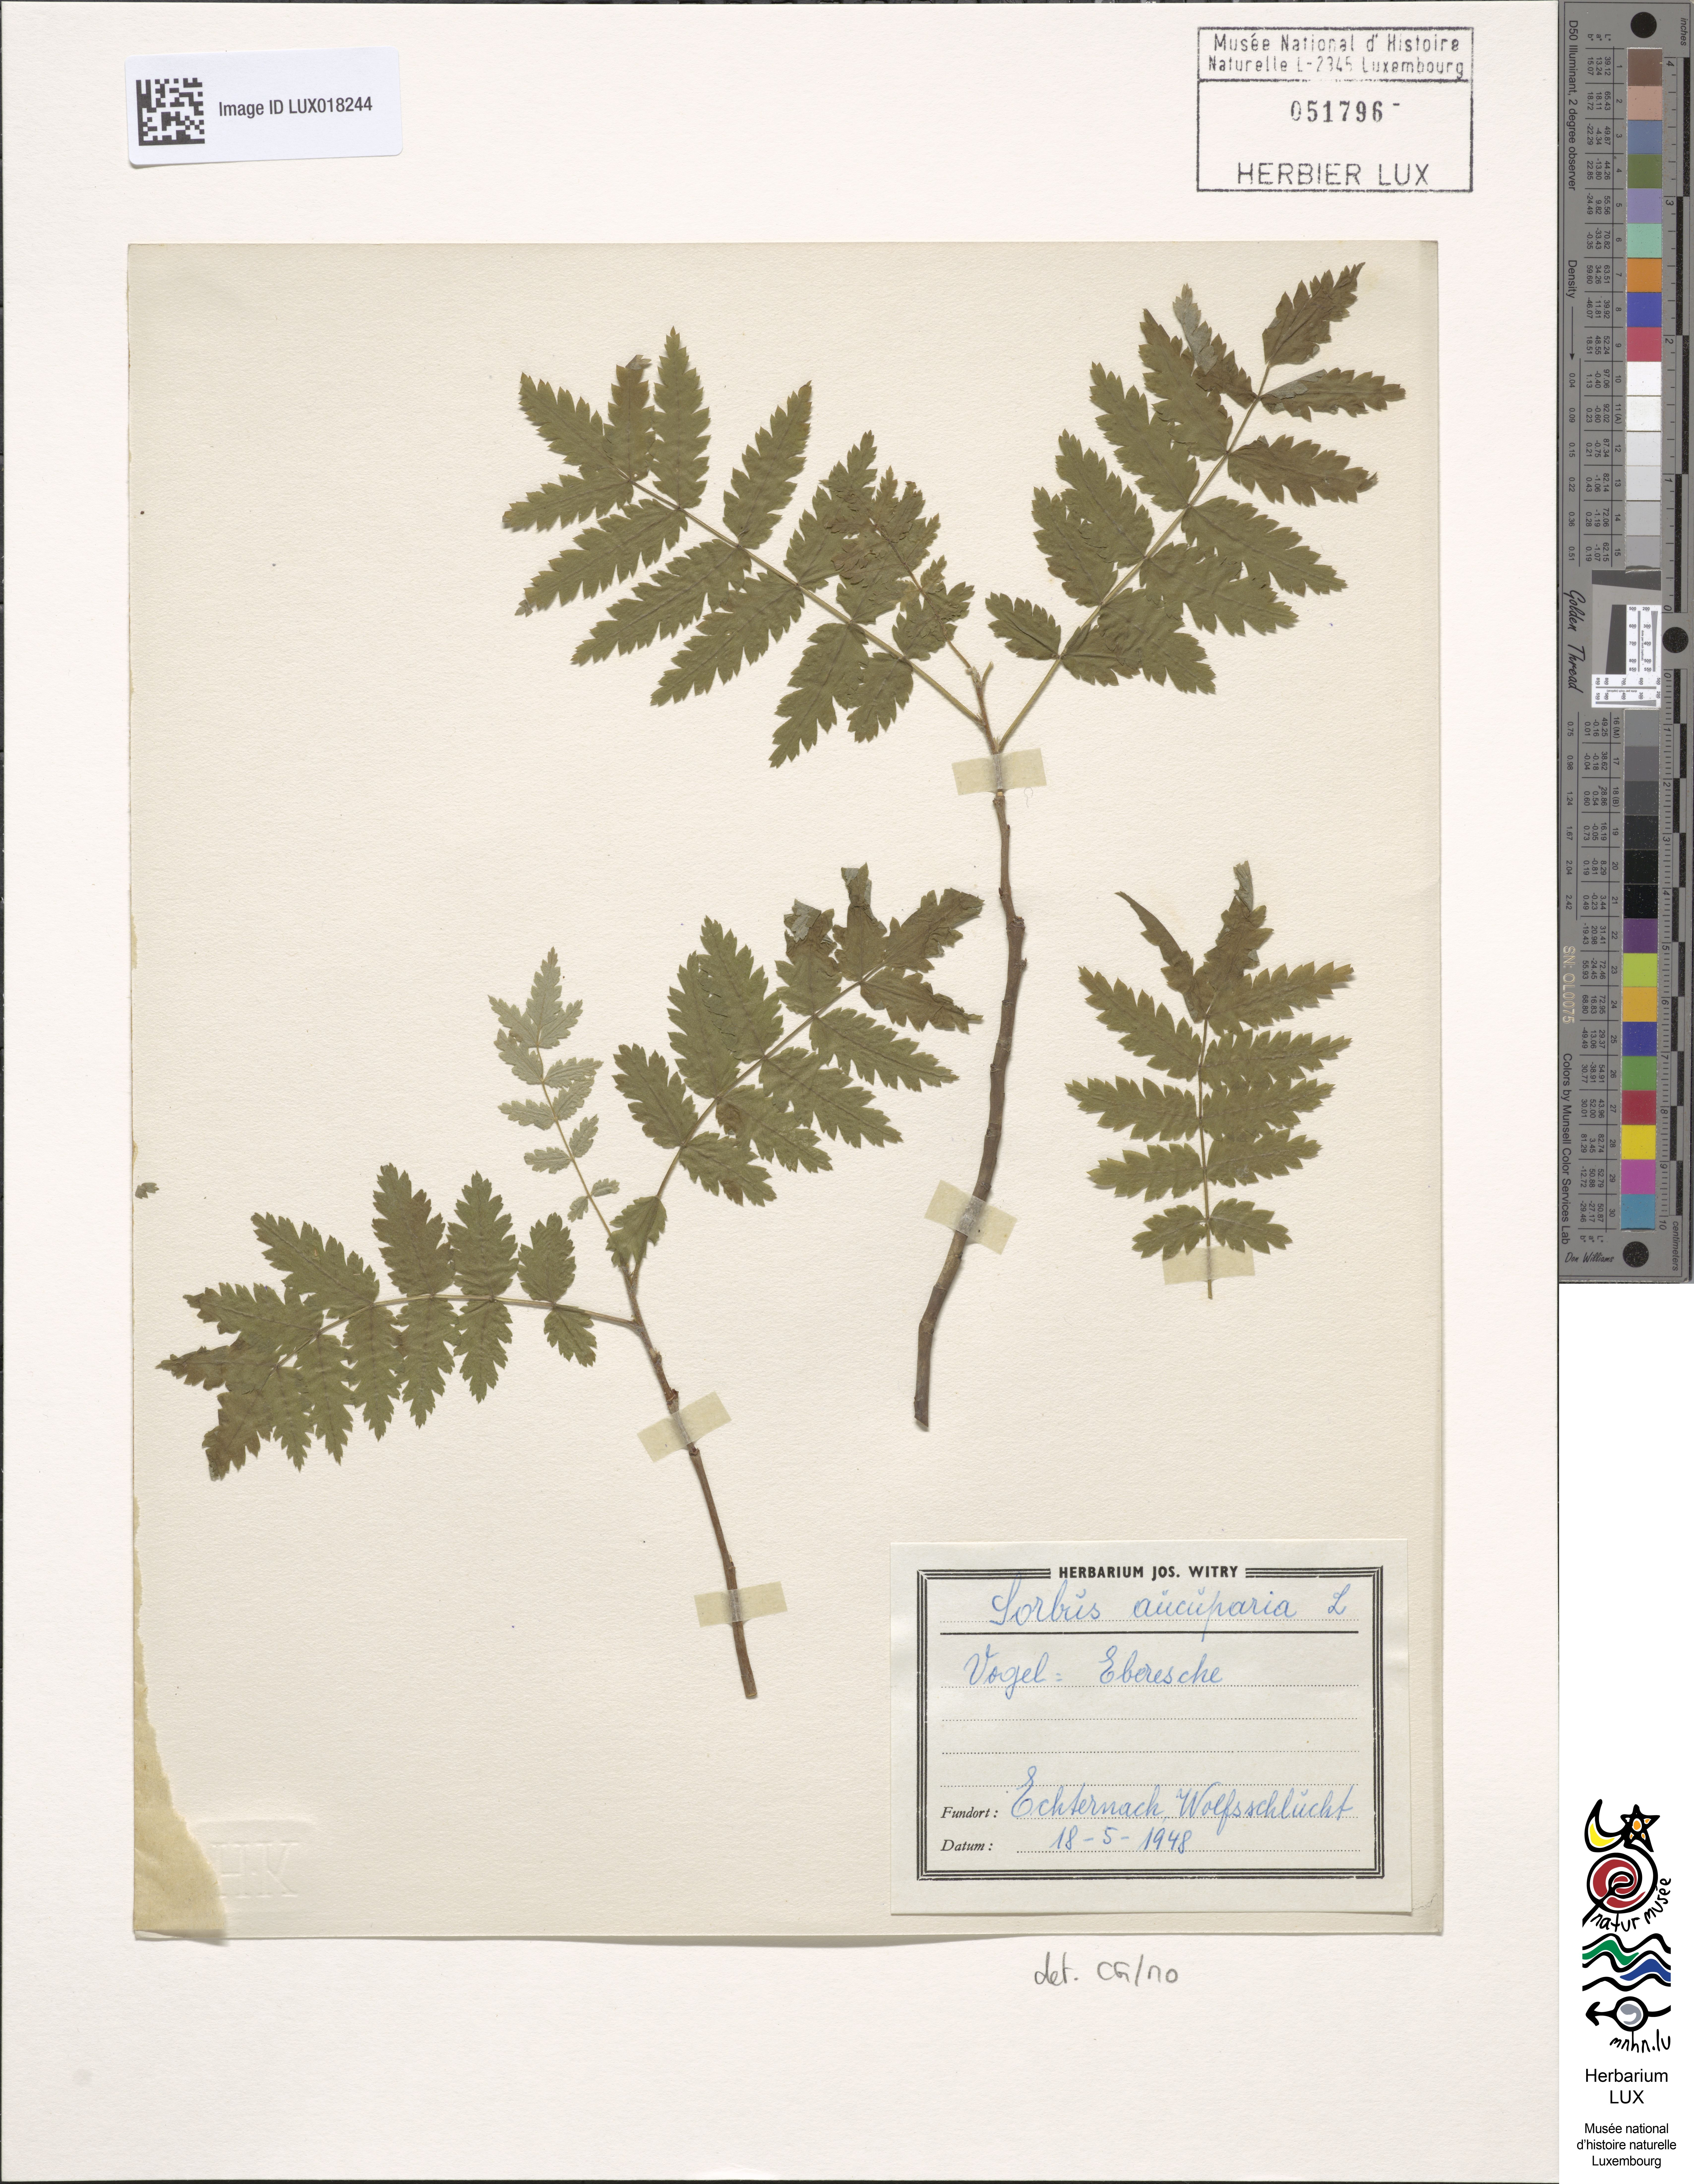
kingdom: Plantae
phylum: Tracheophyta
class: Magnoliopsida
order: Rosales
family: Rosaceae
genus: Sorbus
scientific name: Sorbus aucuparia
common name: Rowan
